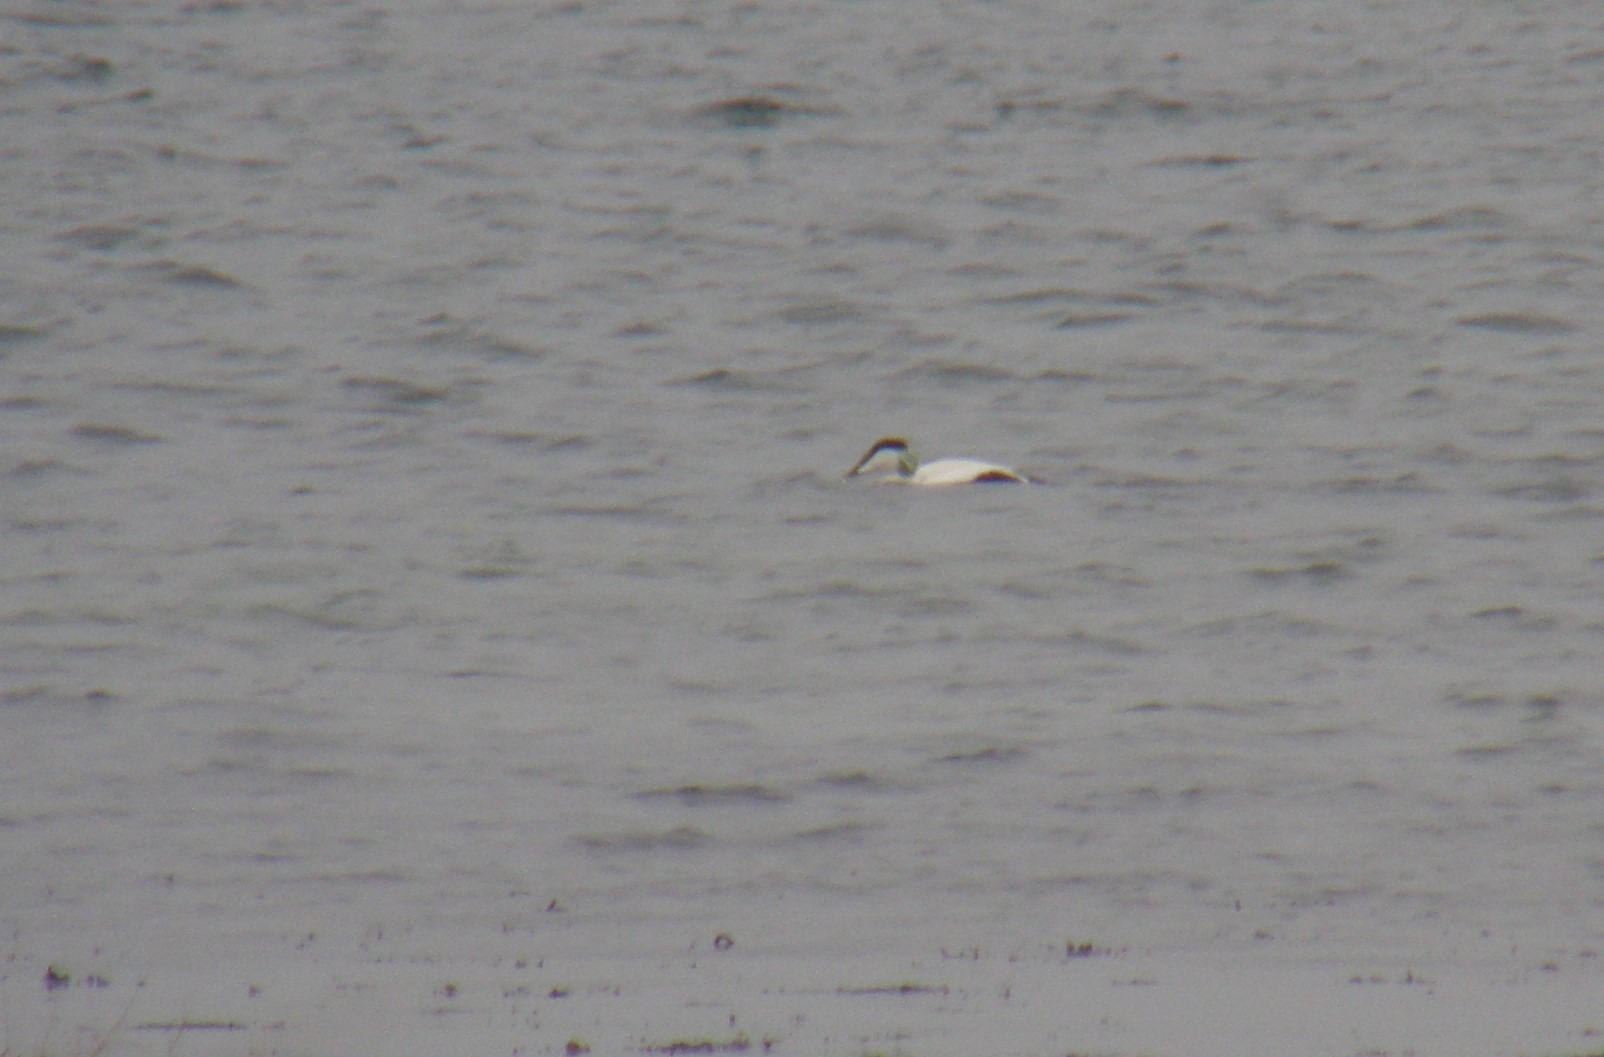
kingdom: Animalia
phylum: Chordata
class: Aves
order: Anseriformes
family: Anatidae
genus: Somateria
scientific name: Somateria mollissima
